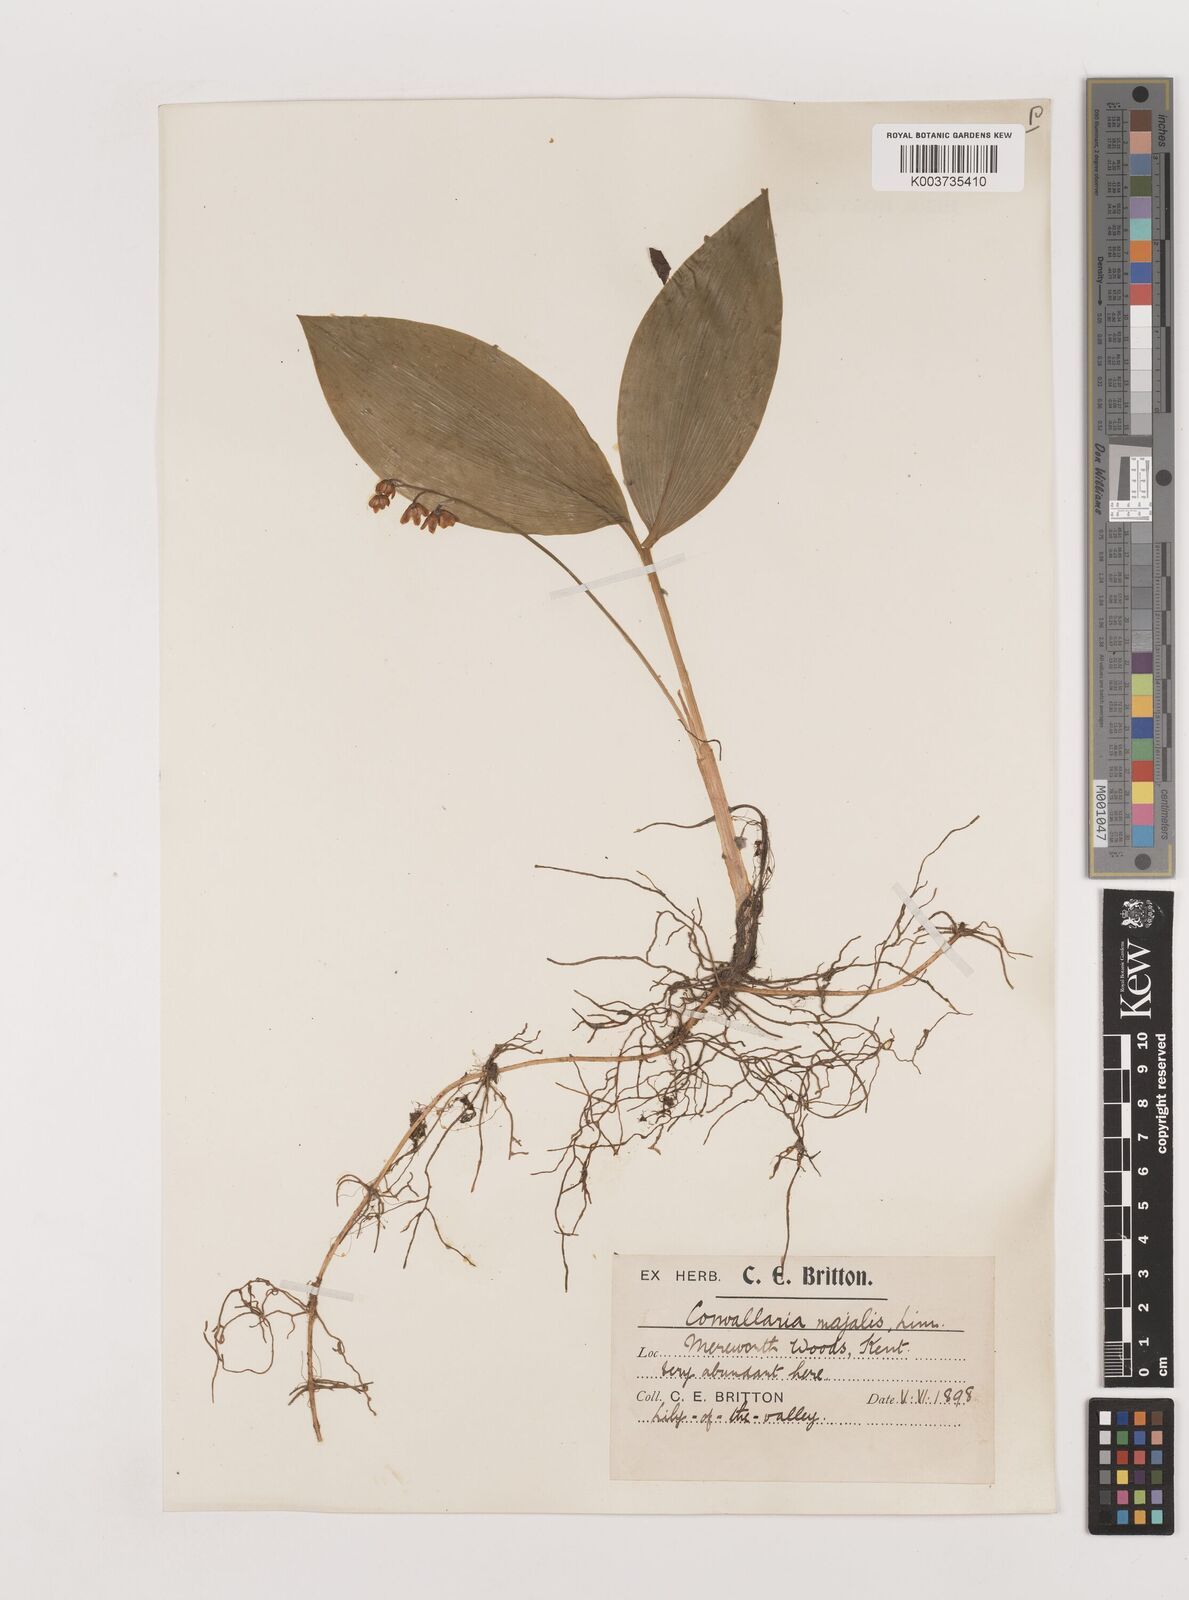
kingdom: Plantae
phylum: Tracheophyta
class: Liliopsida
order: Asparagales
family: Asparagaceae
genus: Convallaria
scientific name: Convallaria majalis
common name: Lily-of-the-valley
